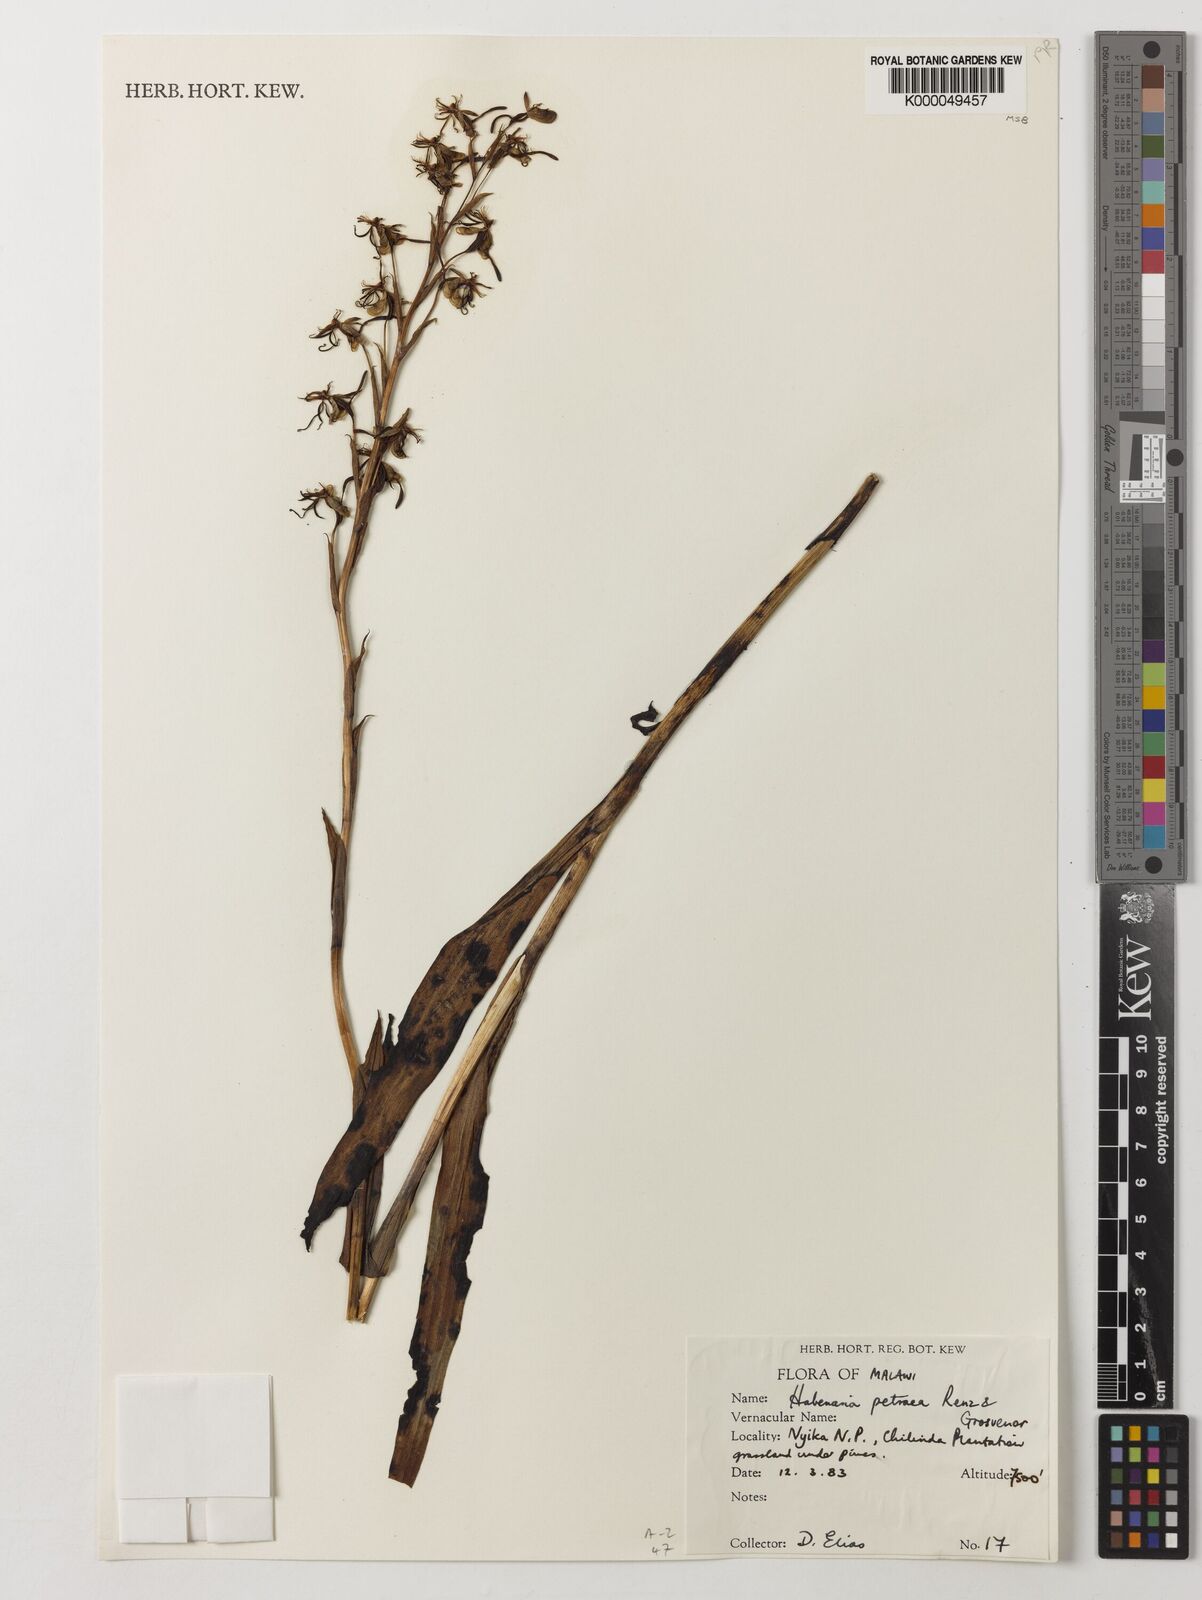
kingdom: Plantae
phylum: Tracheophyta
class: Liliopsida
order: Asparagales
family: Orchidaceae
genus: Habenaria
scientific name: Habenaria petraea
